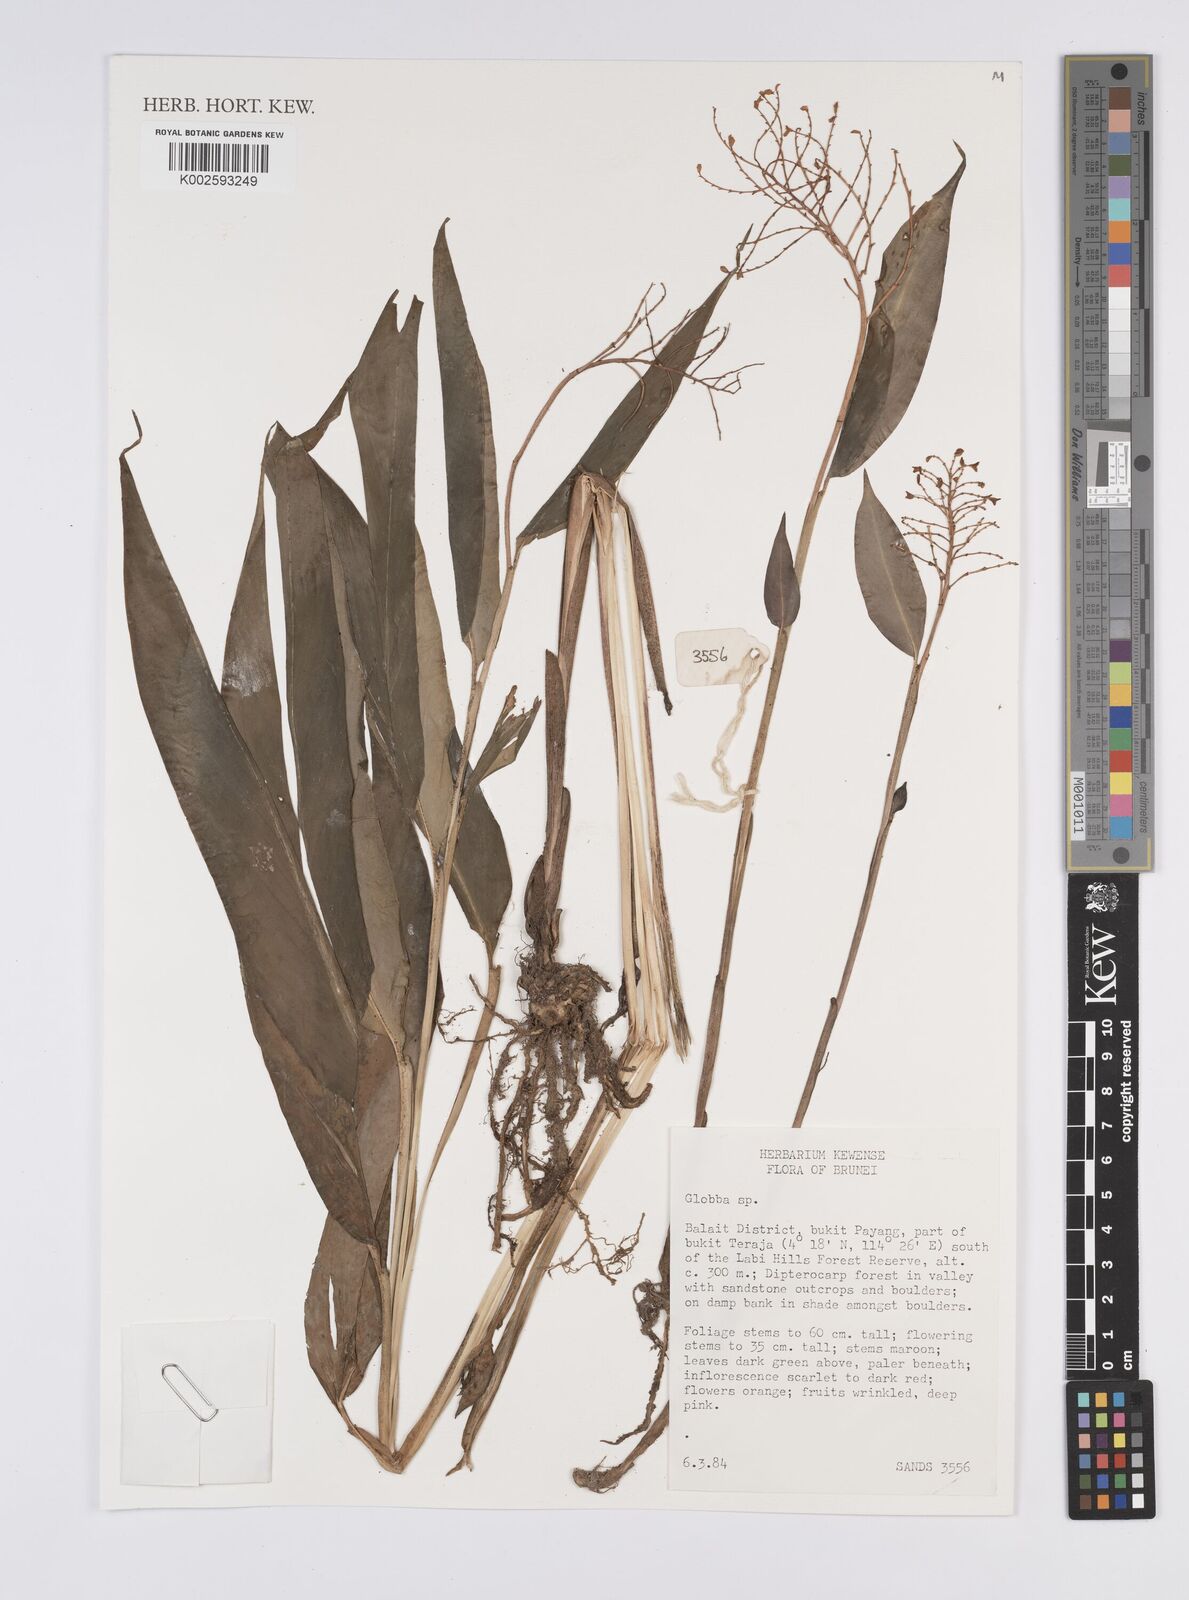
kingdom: Plantae
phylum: Tracheophyta
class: Liliopsida
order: Zingiberales
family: Zingiberaceae
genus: Globba
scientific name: Globba
